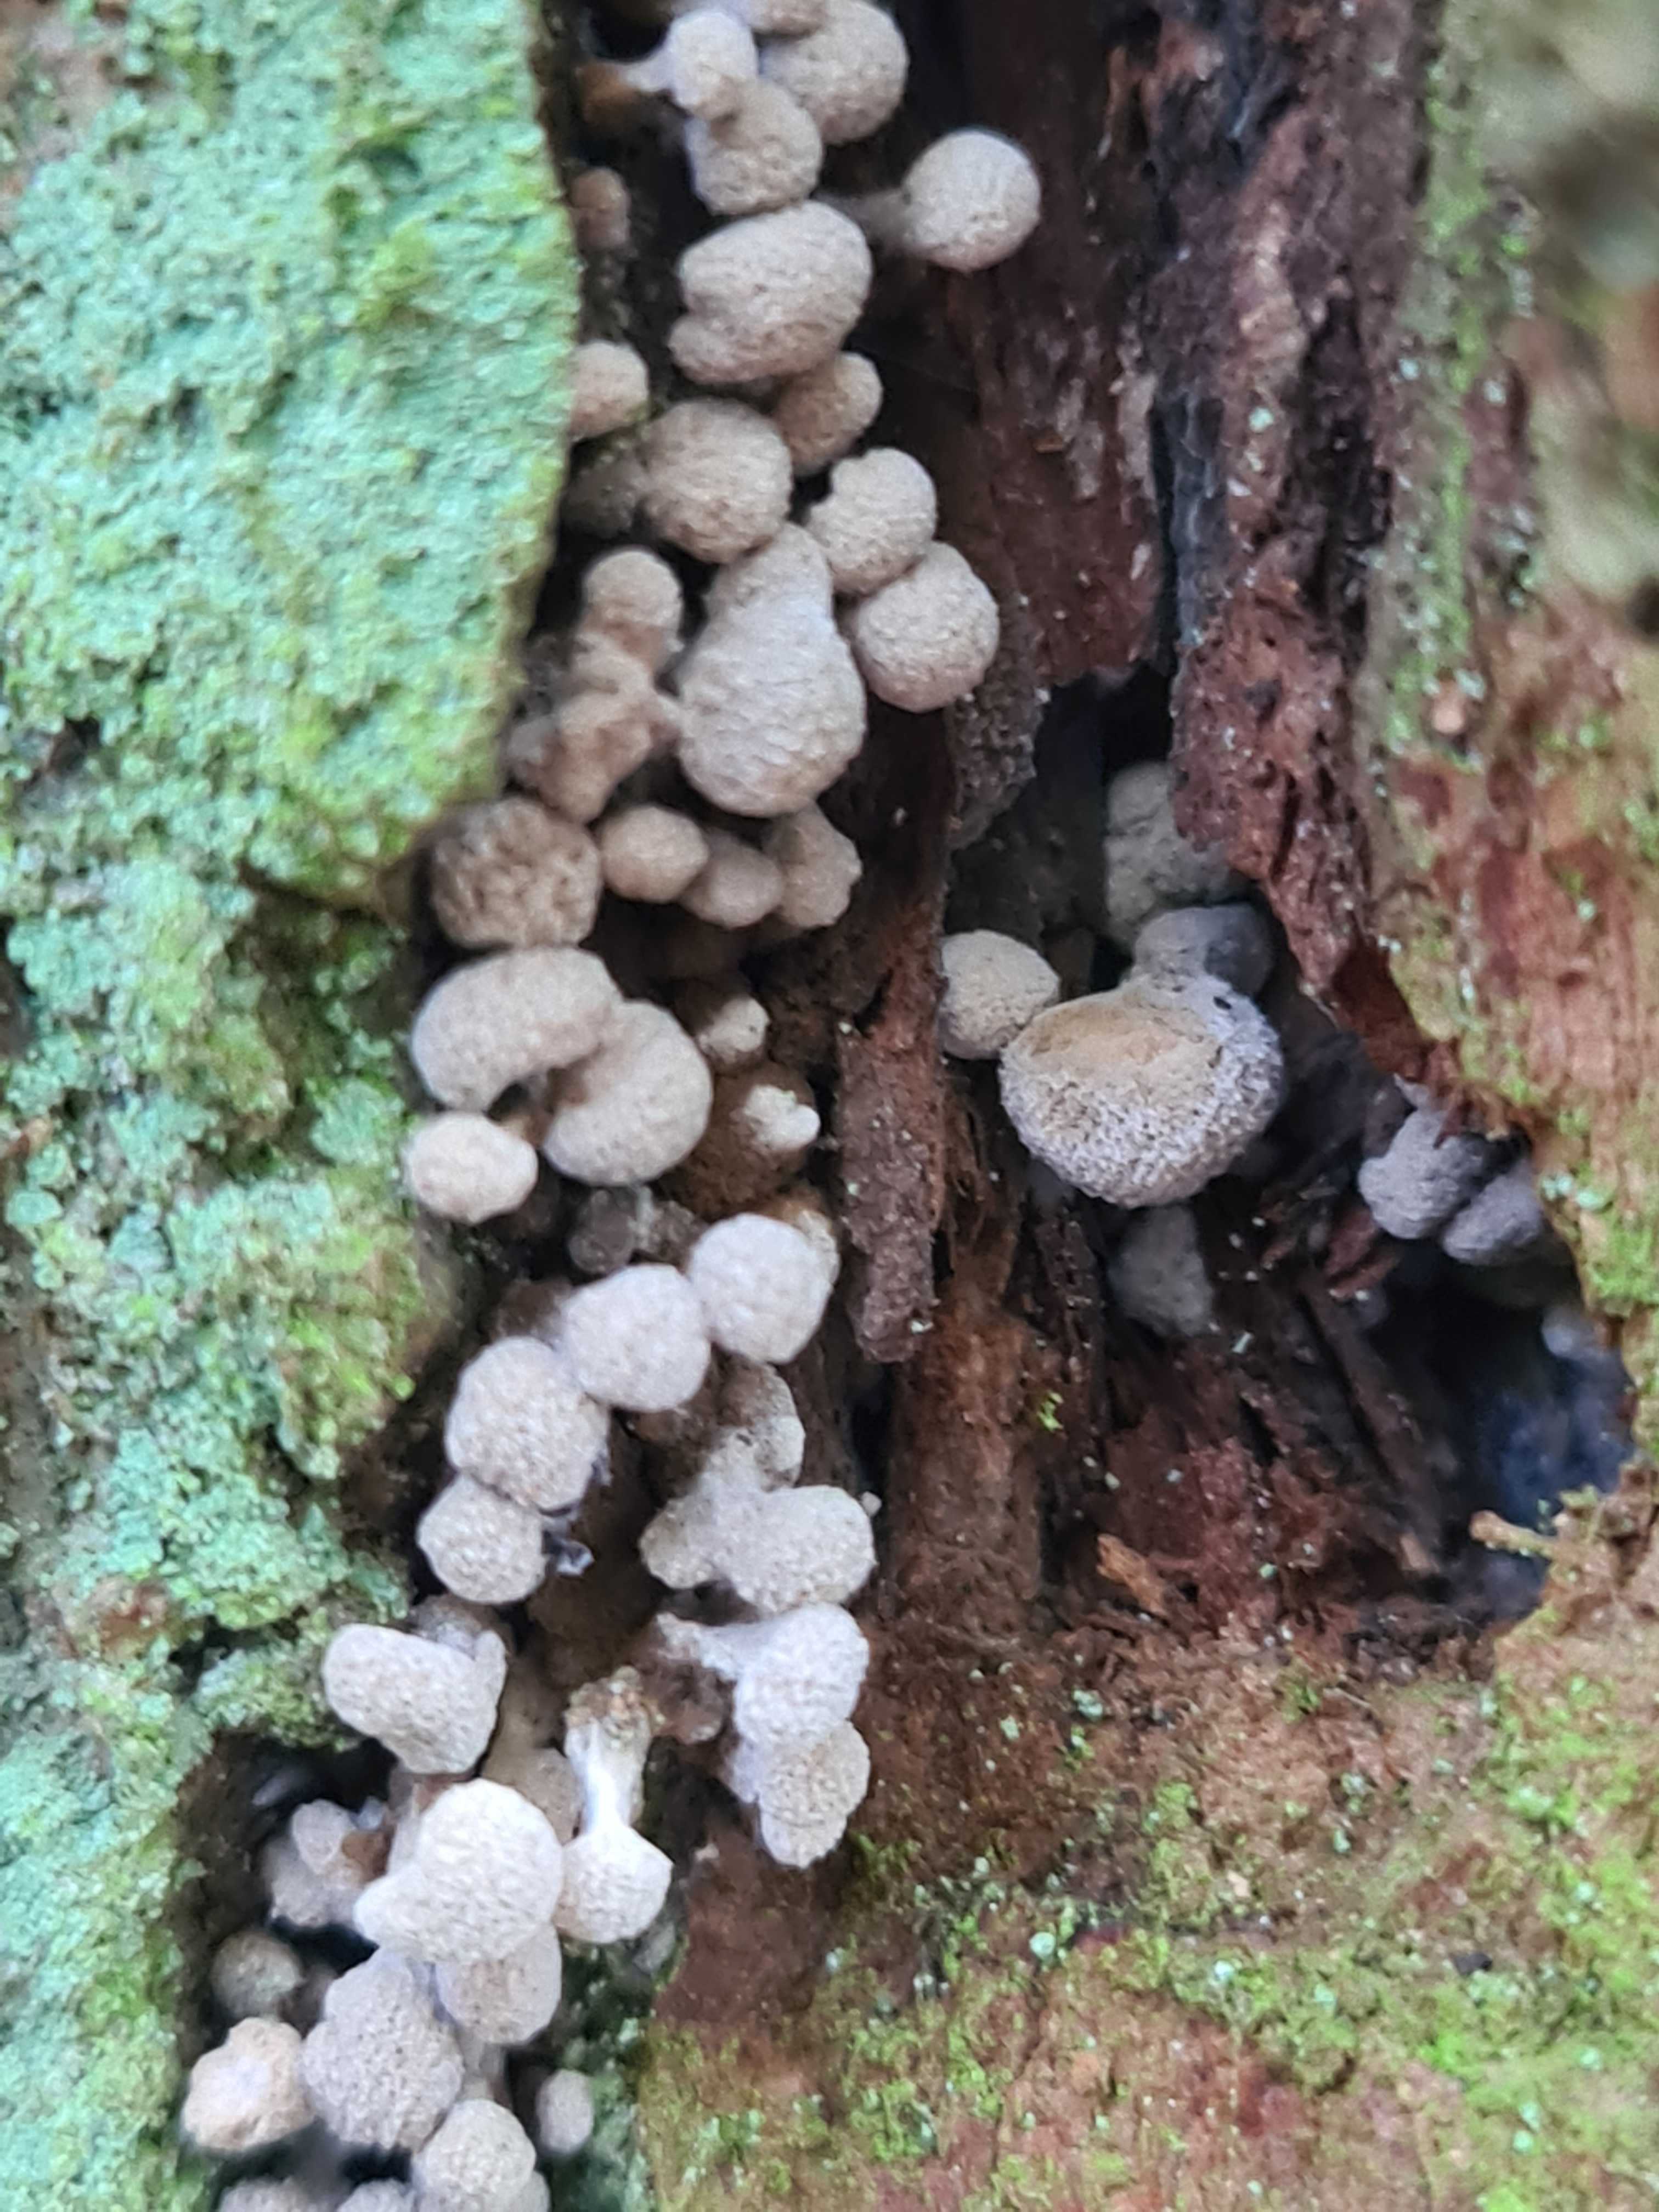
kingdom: Fungi
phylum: Basidiomycota
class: Atractiellomycetes
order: Atractiellales
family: Phleogenaceae
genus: Phleogena
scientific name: Phleogena faginea
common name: pudderkølle
